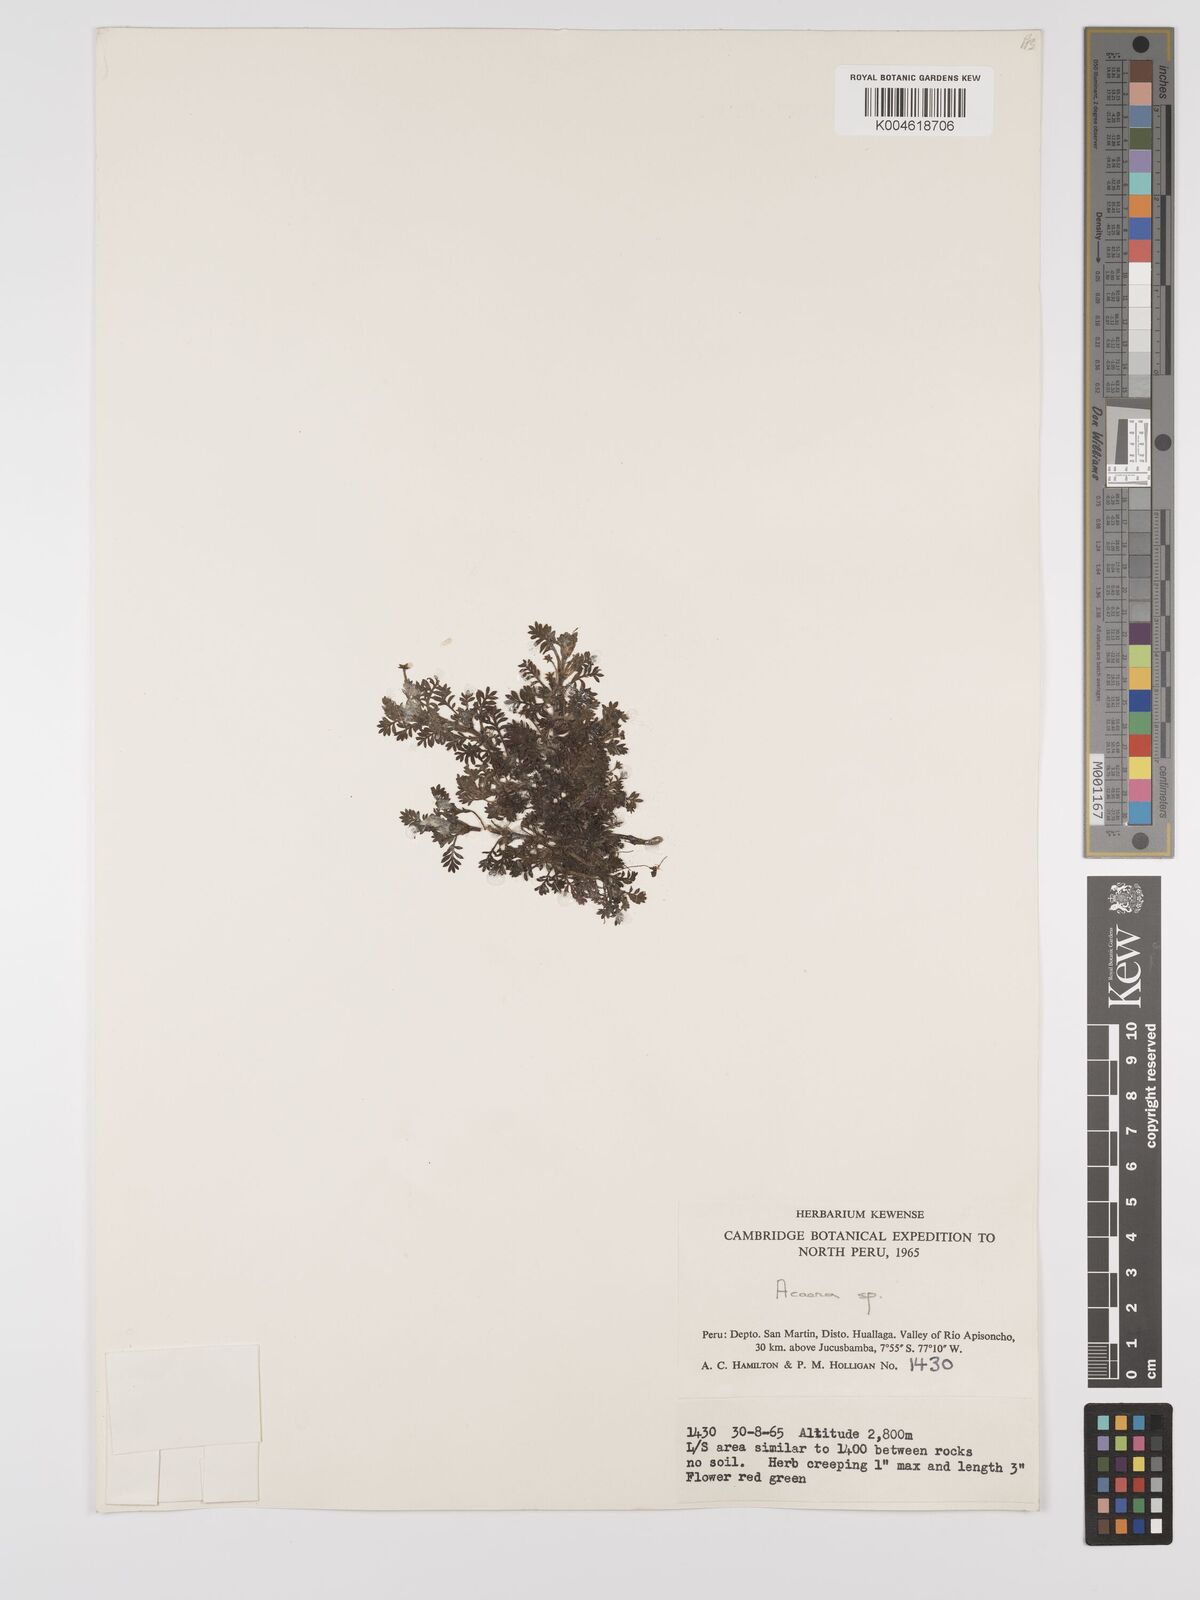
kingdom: Plantae
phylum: Tracheophyta
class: Magnoliopsida
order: Rosales
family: Rosaceae
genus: Acaena
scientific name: Acaena
